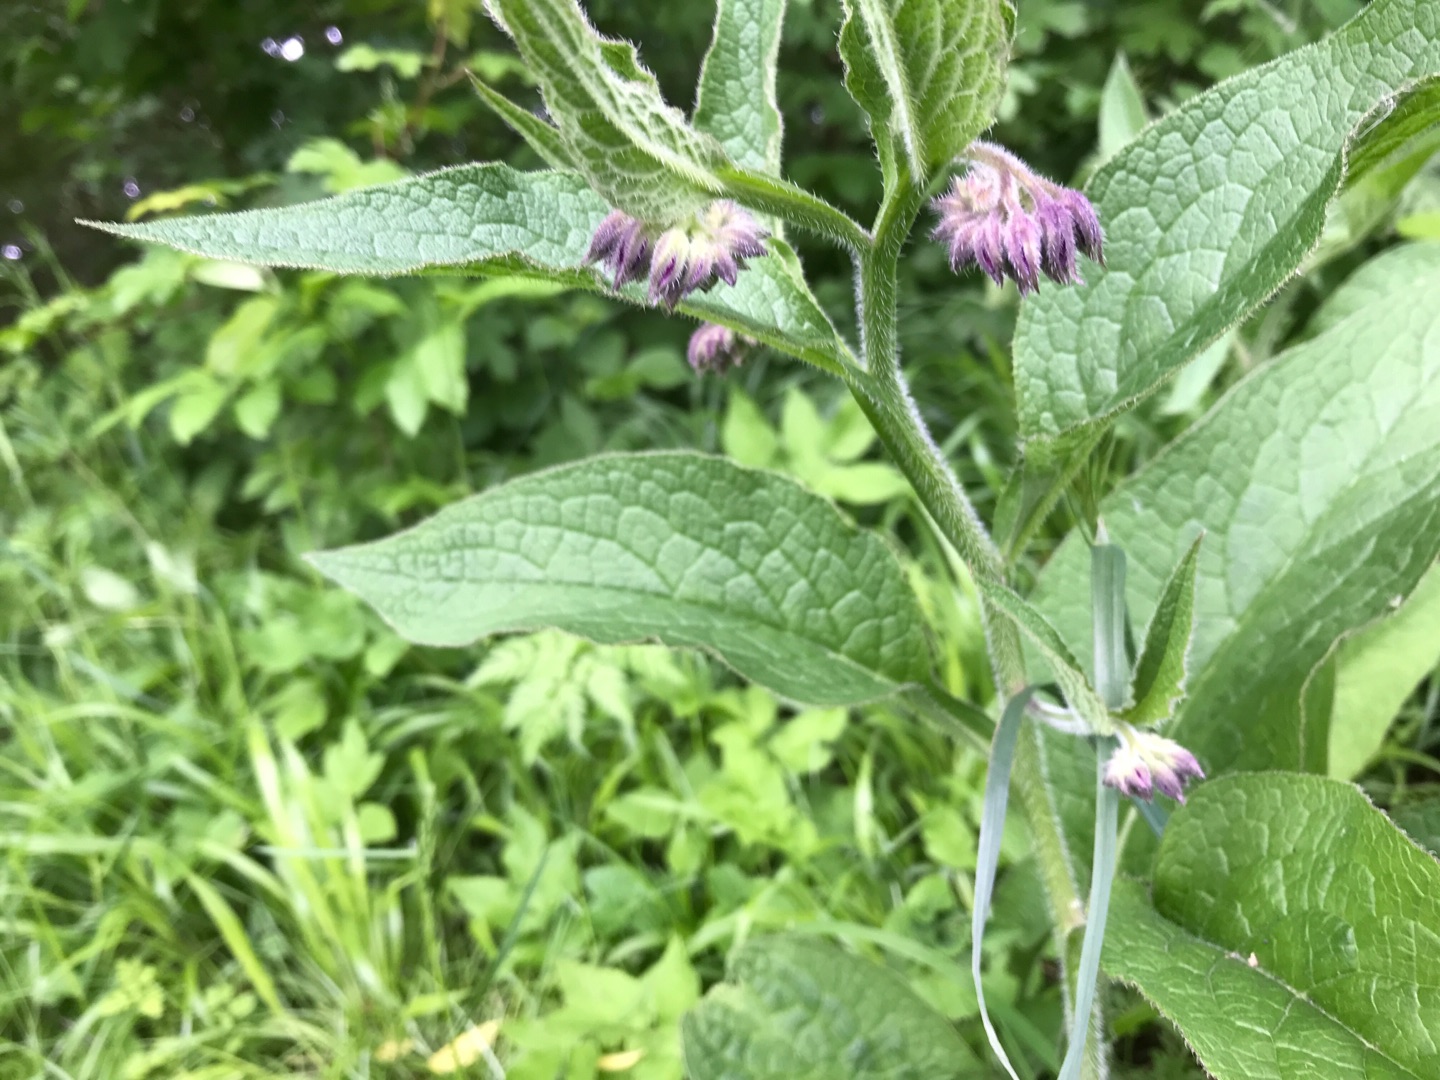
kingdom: Plantae
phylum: Tracheophyta
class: Magnoliopsida
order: Boraginales
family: Boraginaceae
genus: Symphytum
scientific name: Symphytum uplandicum
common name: Foder-kulsukker
